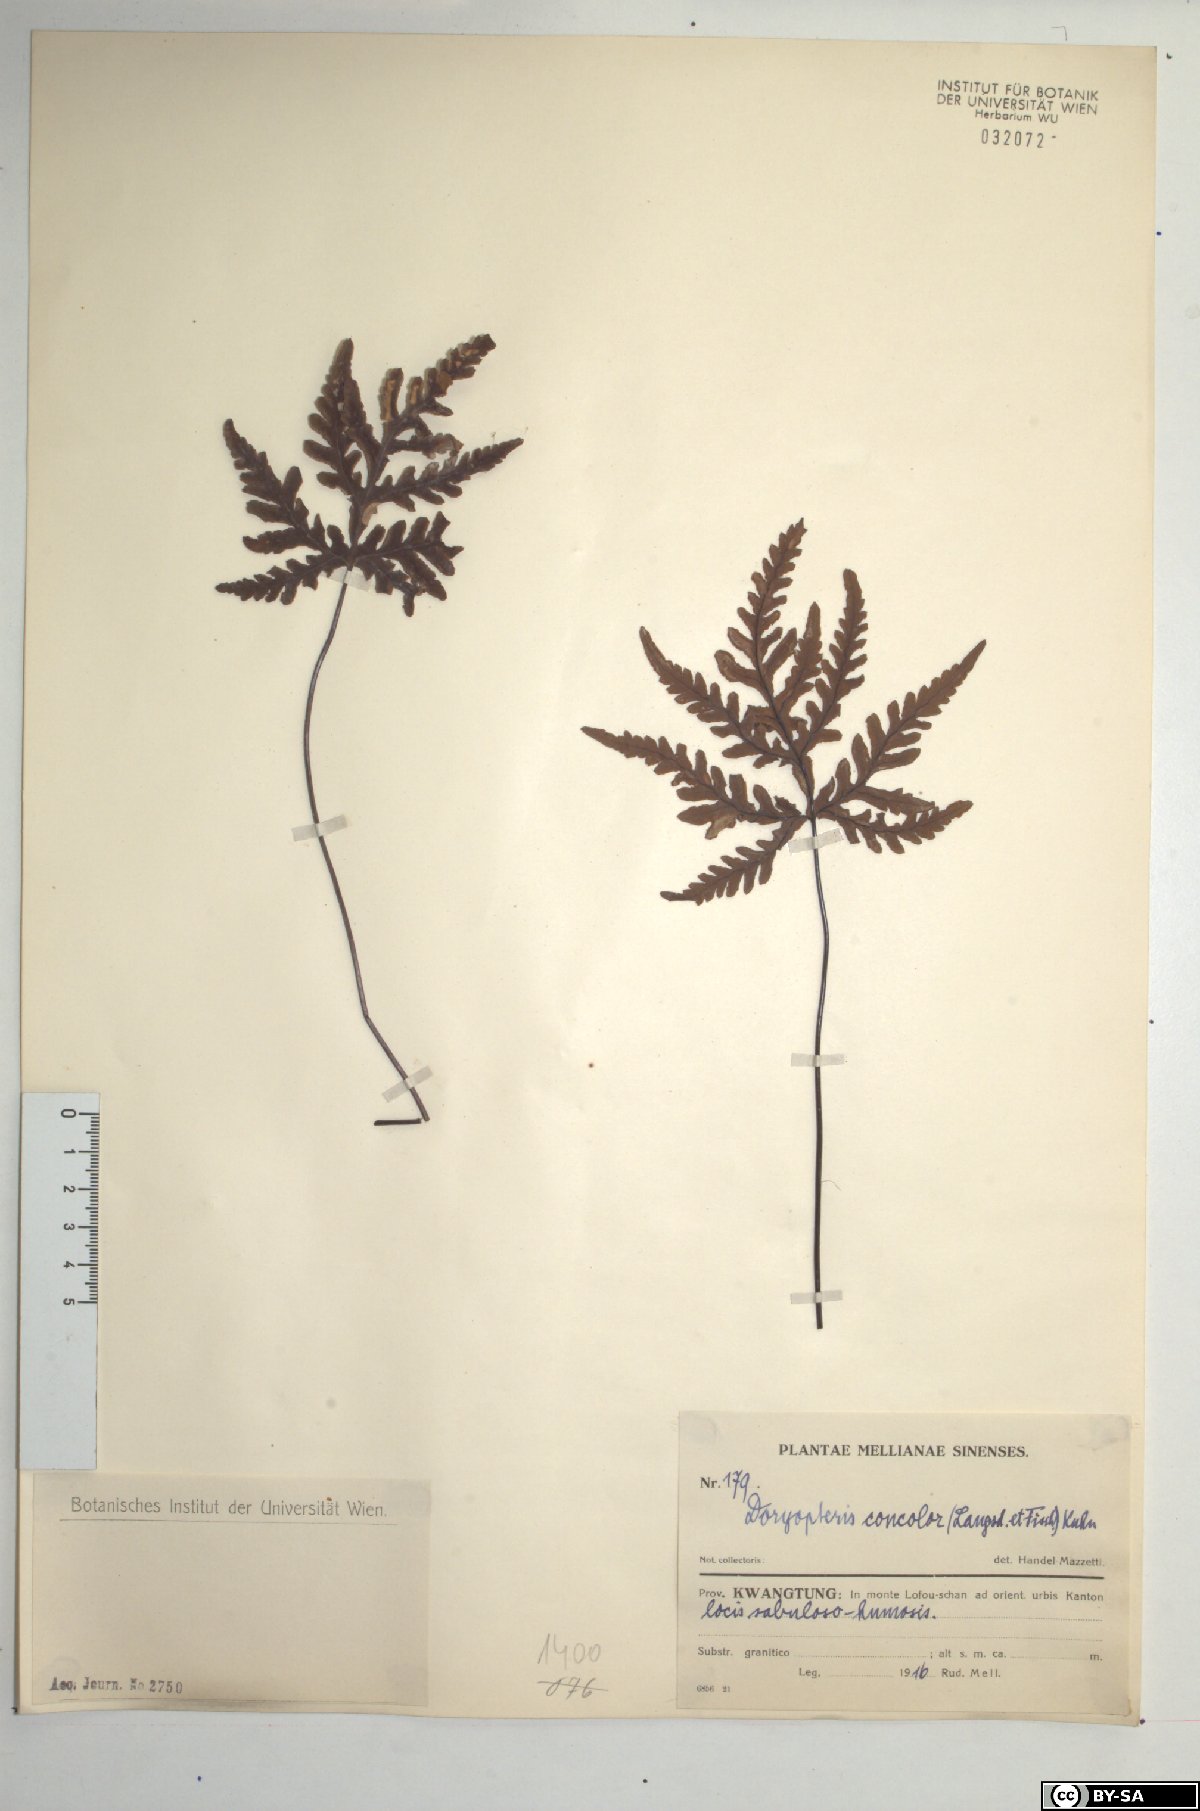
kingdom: Plantae
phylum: Tracheophyta
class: Polypodiopsida
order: Polypodiales
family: Pteridaceae
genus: Doryopteris
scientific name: Doryopteris concolor
